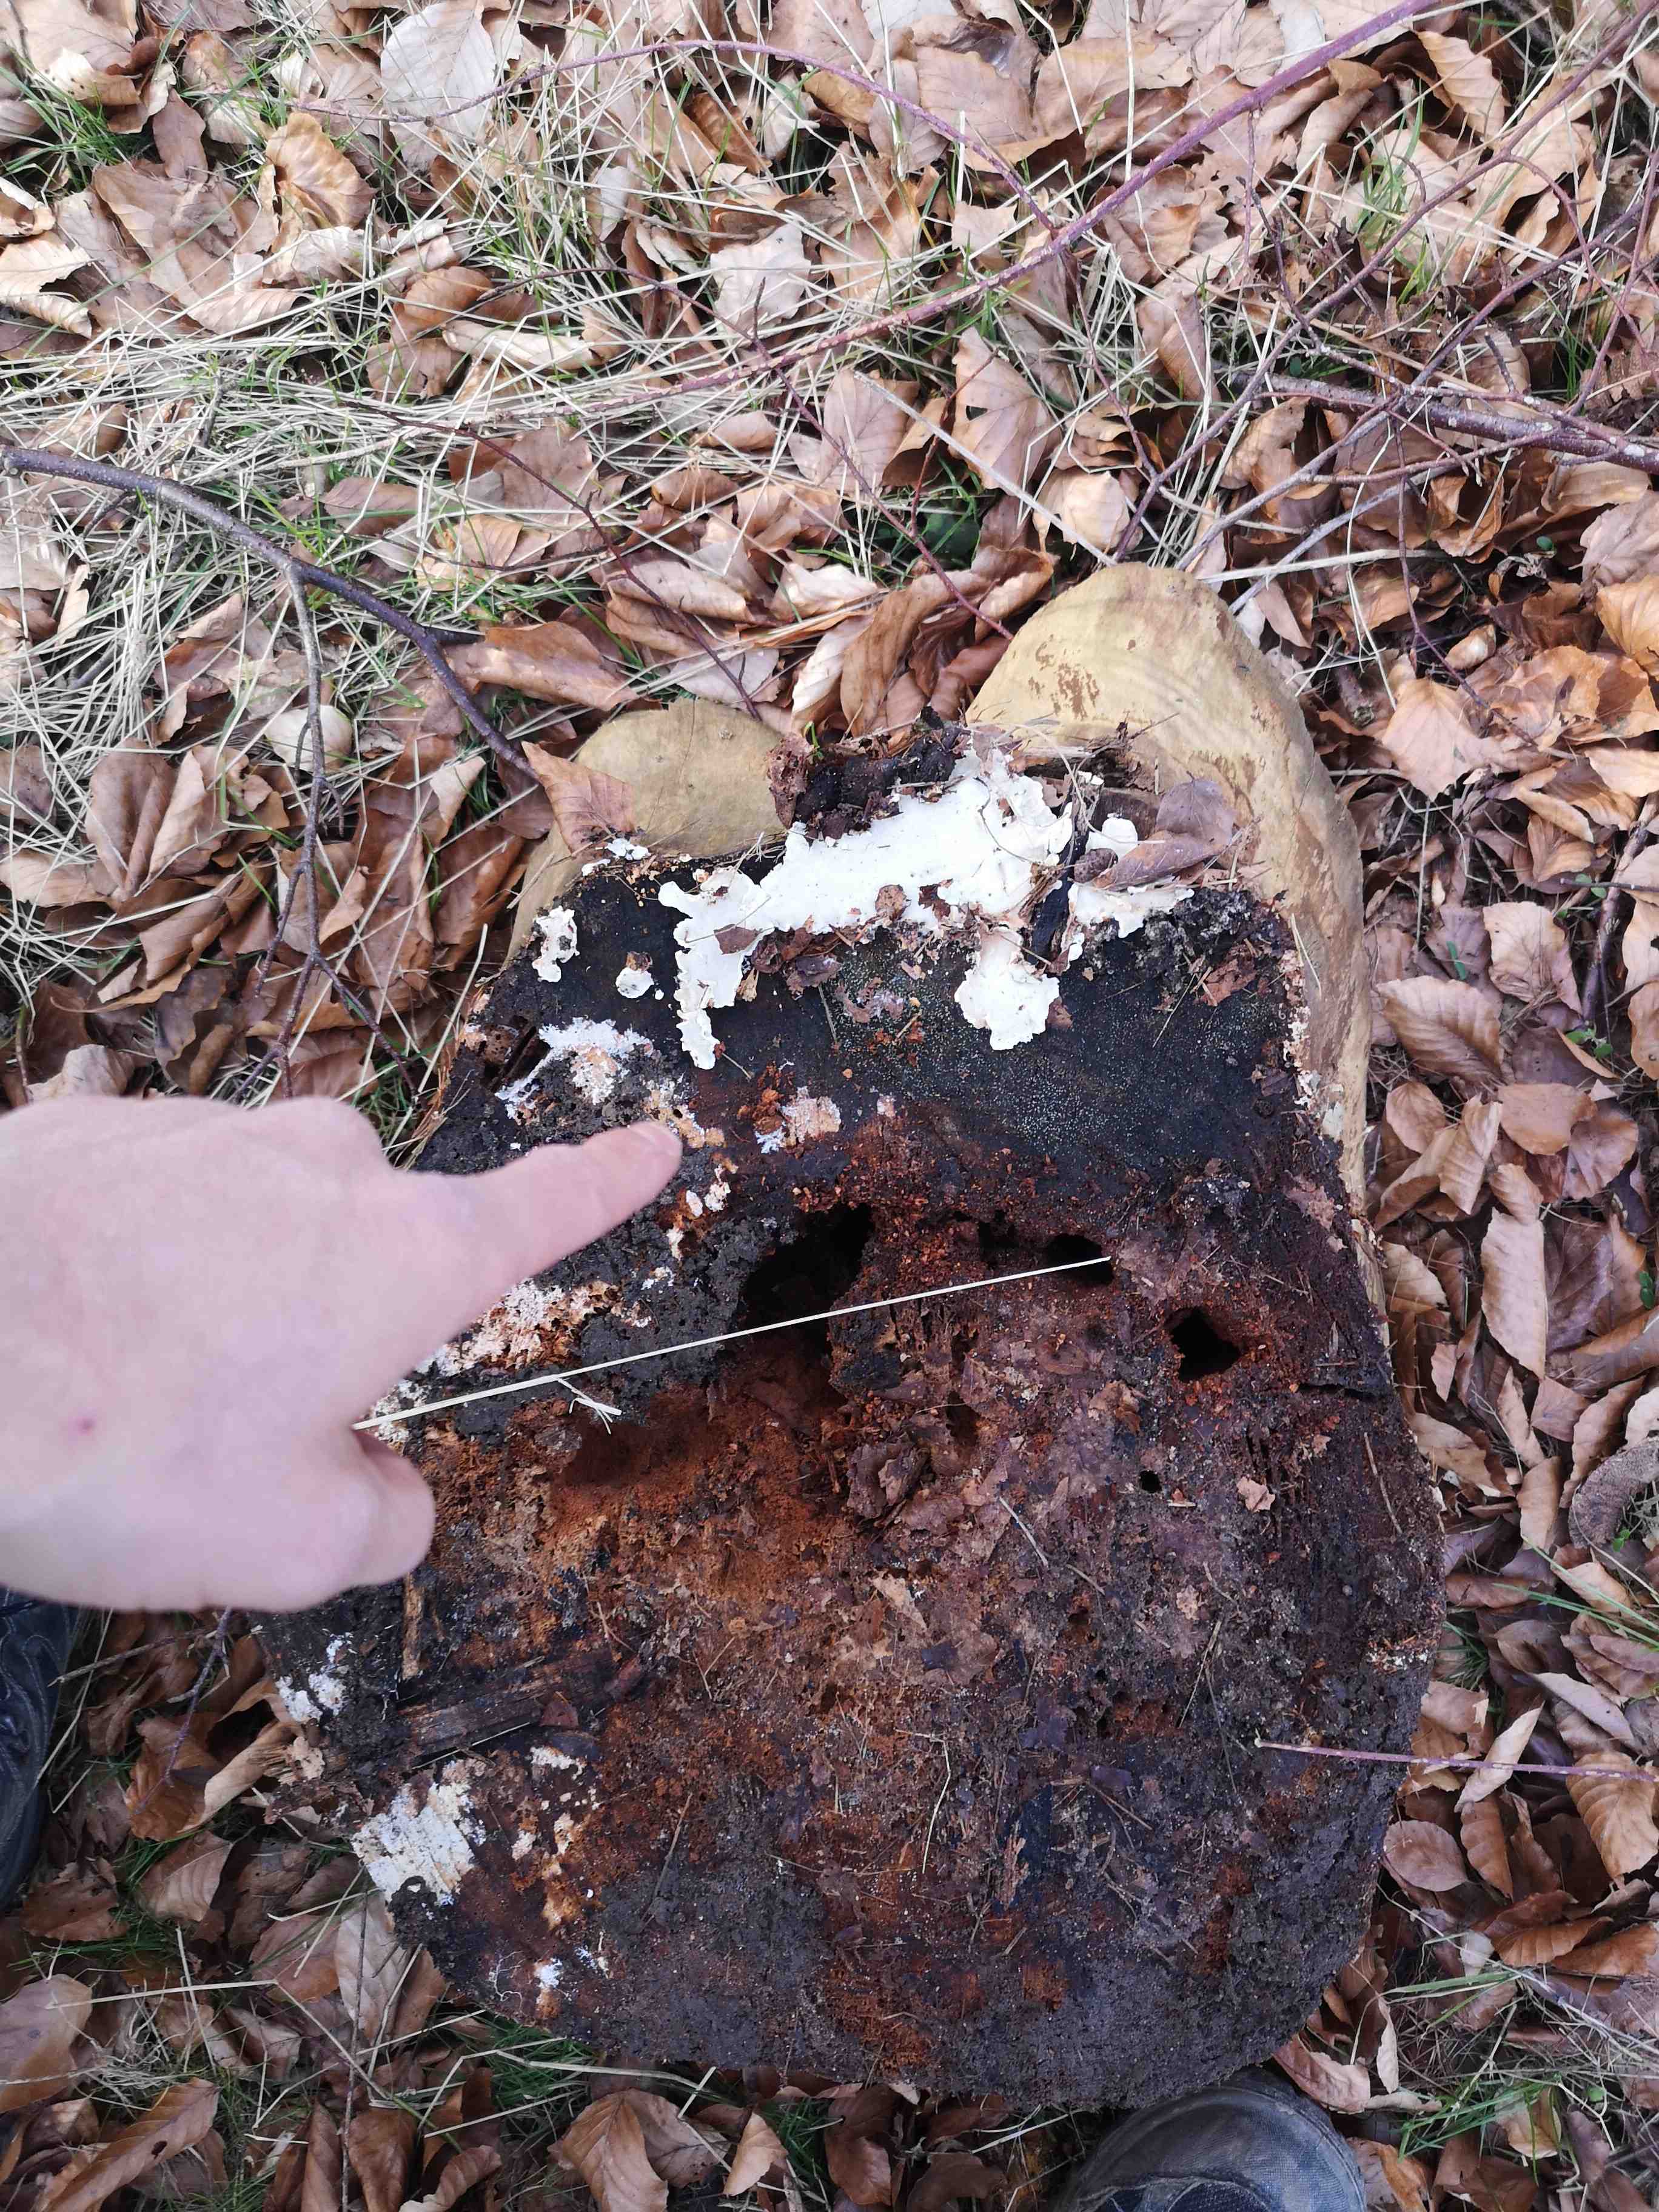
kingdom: Fungi
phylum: Basidiomycota
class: Agaricomycetes
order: Polyporales
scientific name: Polyporales
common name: poresvampordenen
